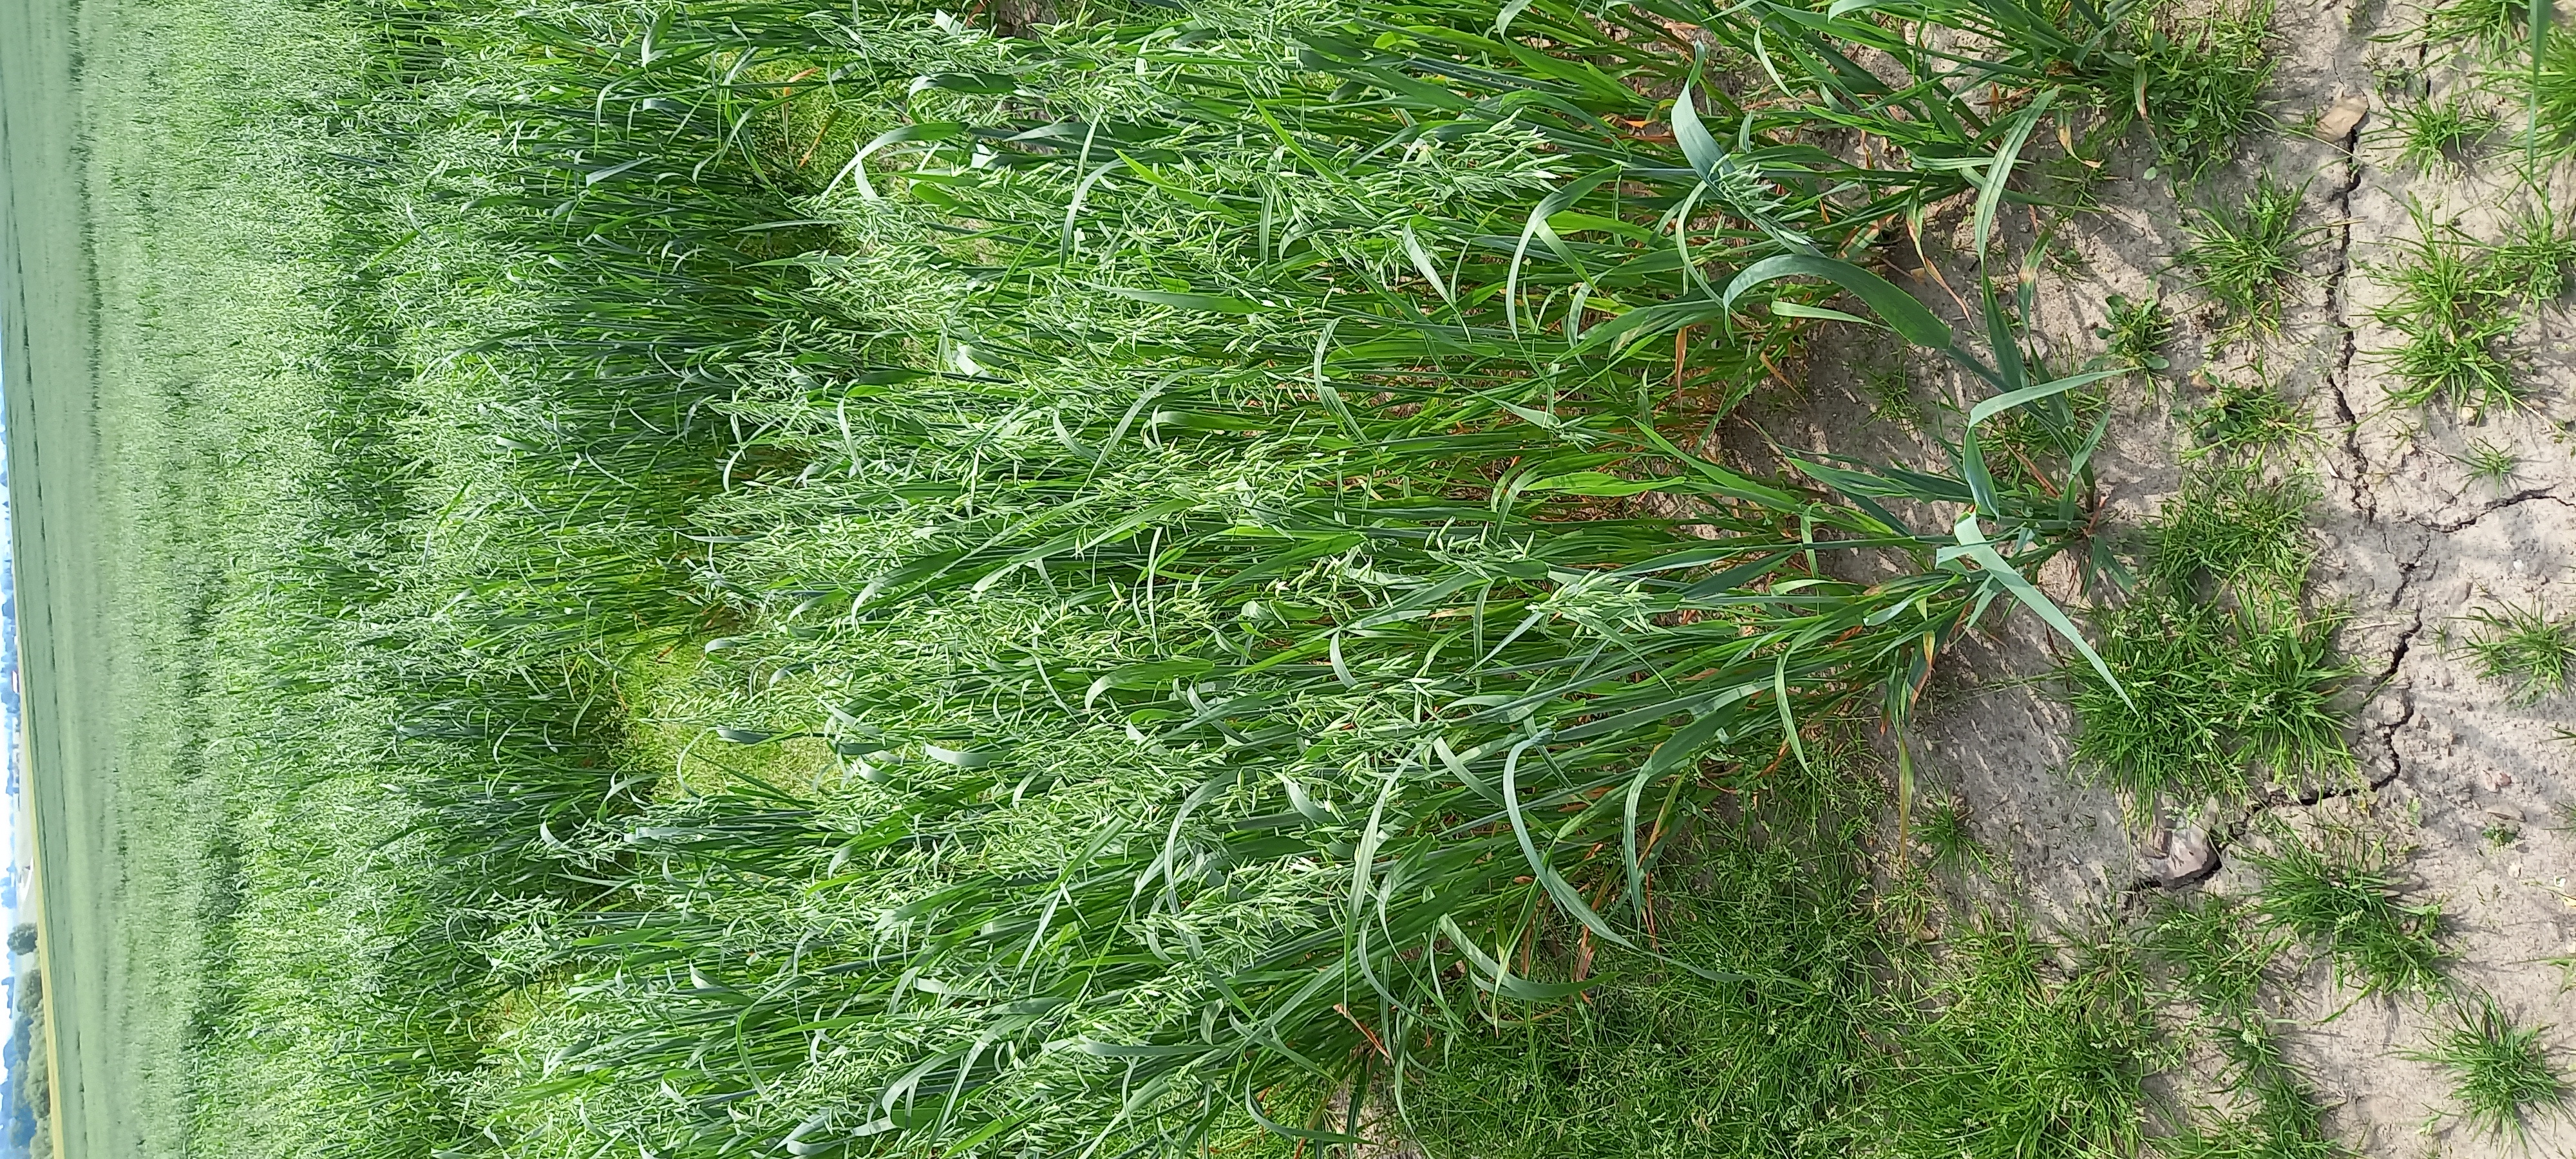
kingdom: Plantae
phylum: Tracheophyta
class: Liliopsida
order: Poales
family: Poaceae
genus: Avena
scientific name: Avena sativa
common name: Oat
